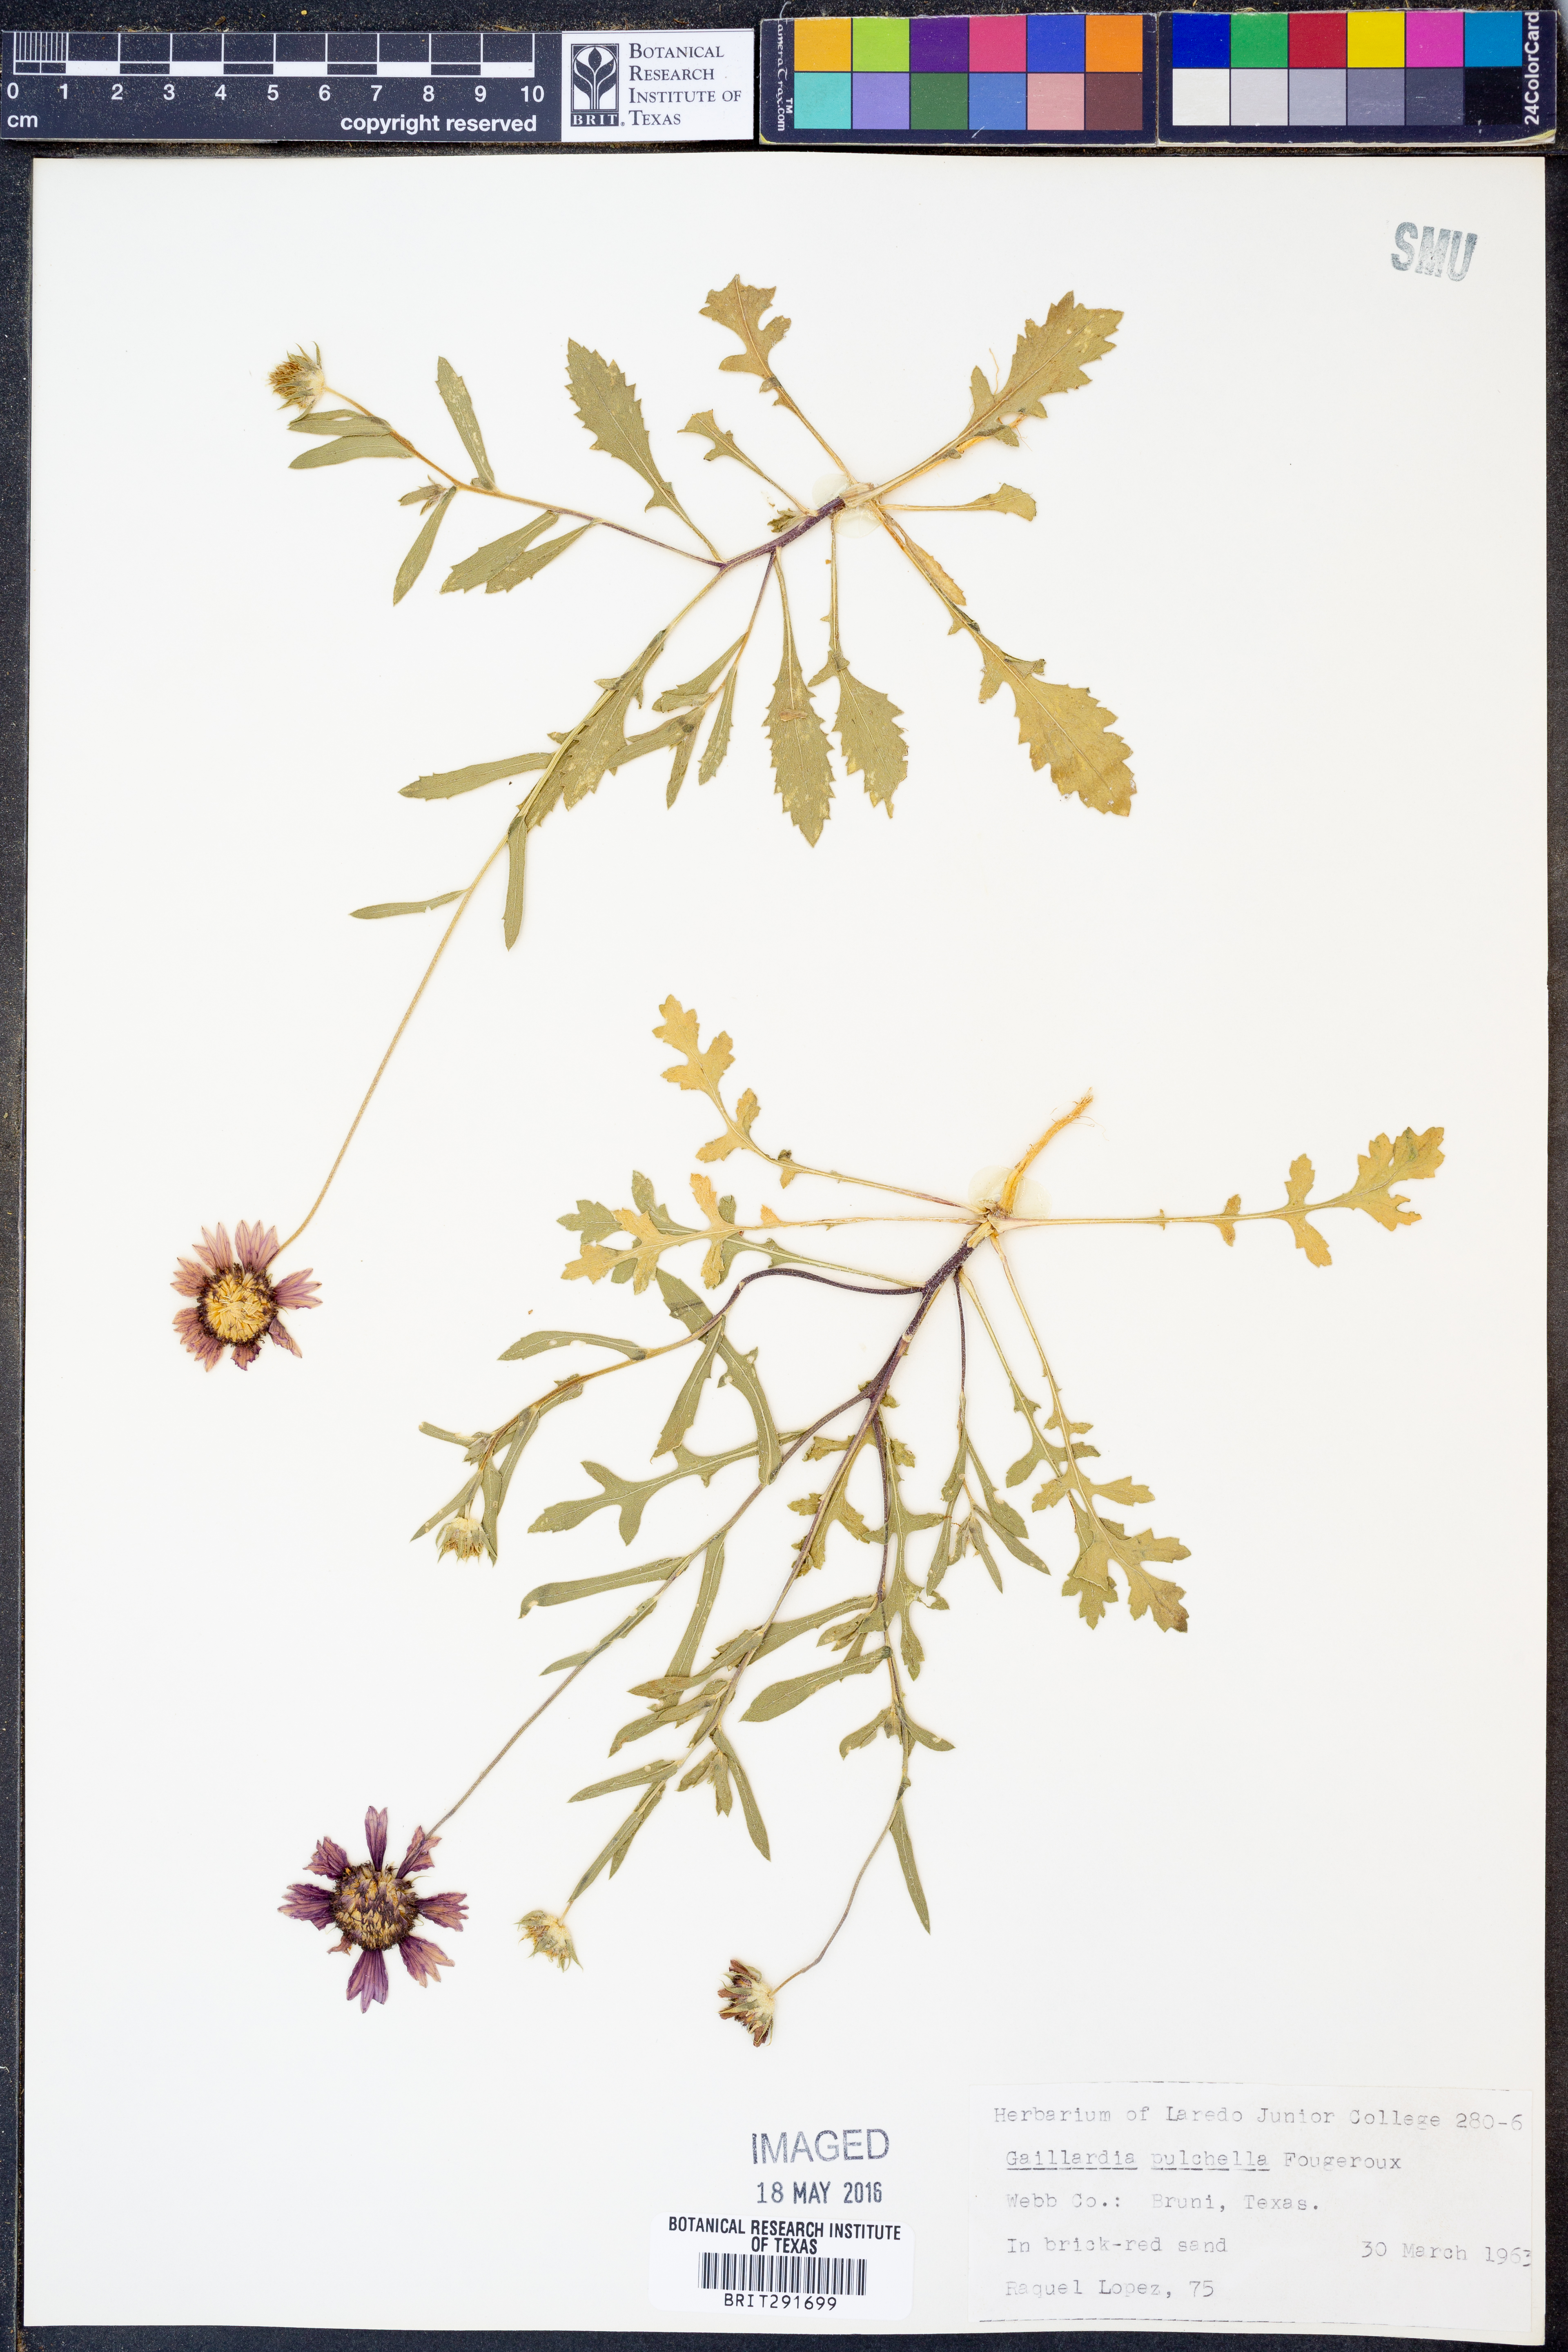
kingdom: Plantae
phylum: Tracheophyta
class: Magnoliopsida
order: Asterales
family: Asteraceae
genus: Gaillardia
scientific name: Gaillardia pulchella
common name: Firewheel
